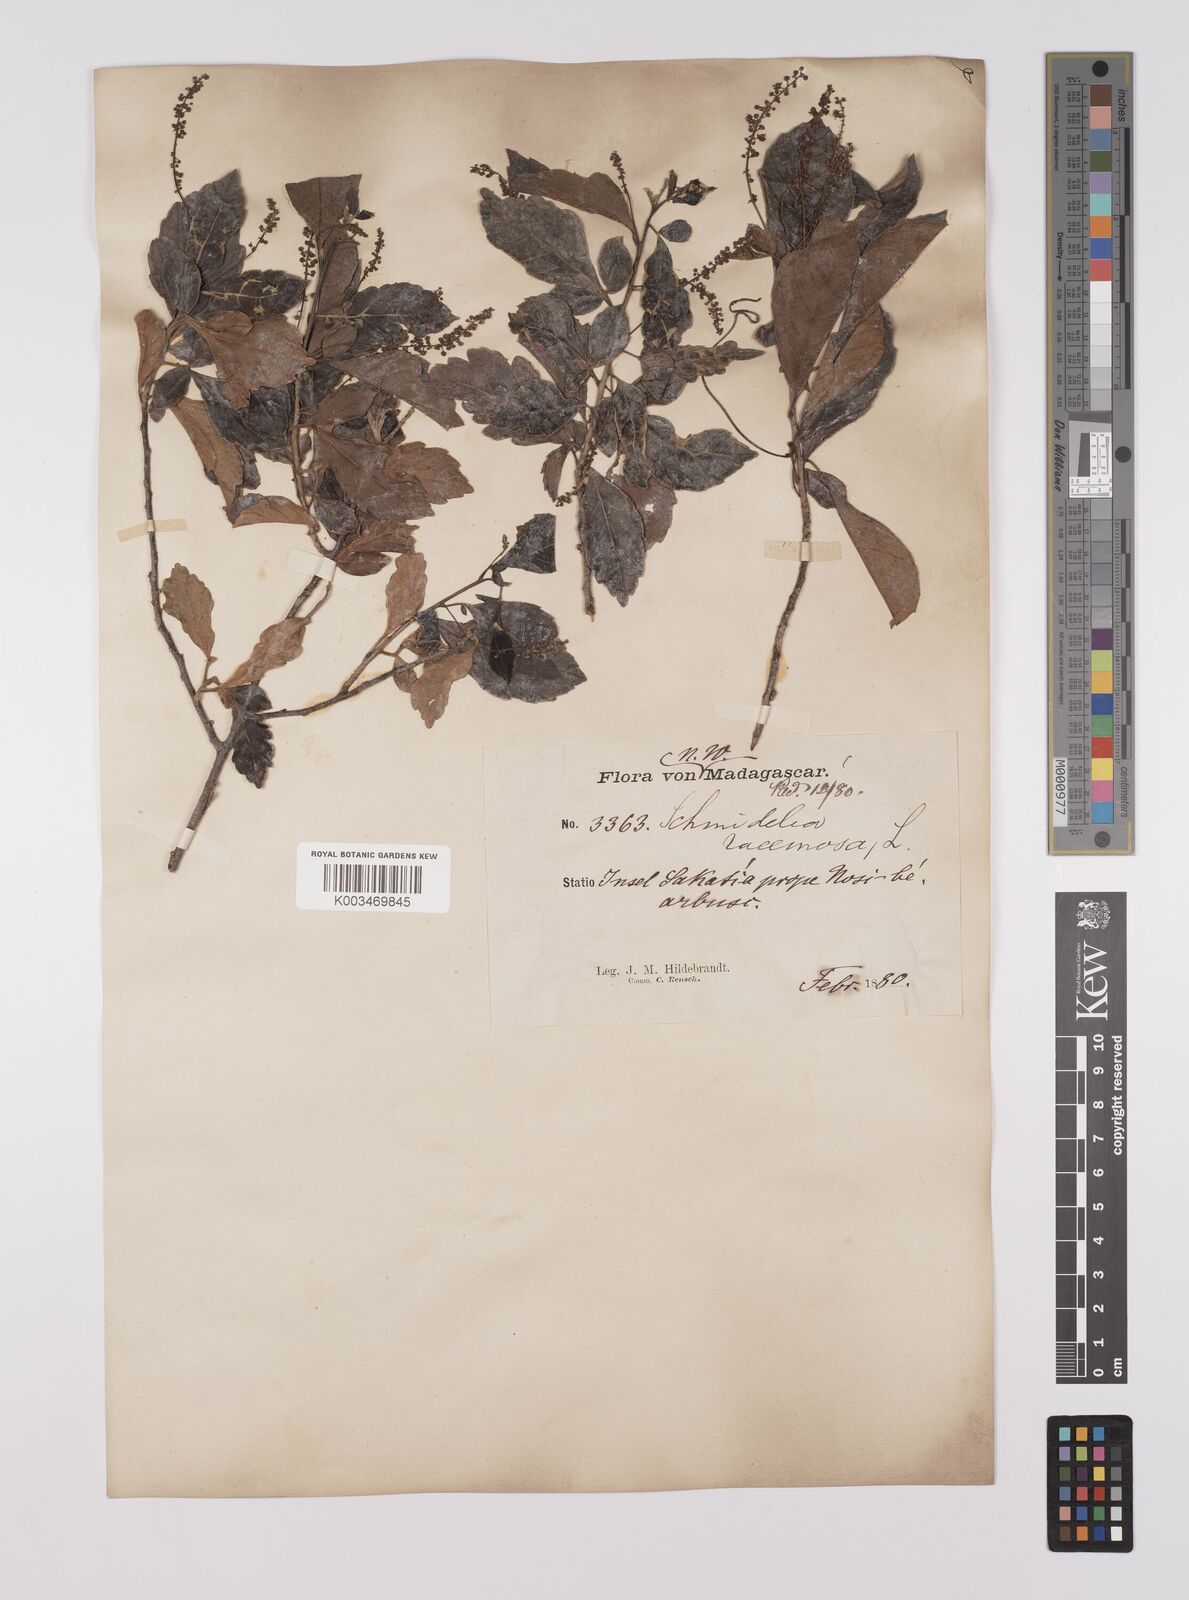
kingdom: Plantae
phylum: Tracheophyta
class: Magnoliopsida
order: Sapindales
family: Sapindaceae
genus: Allophylus
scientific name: Allophylus
